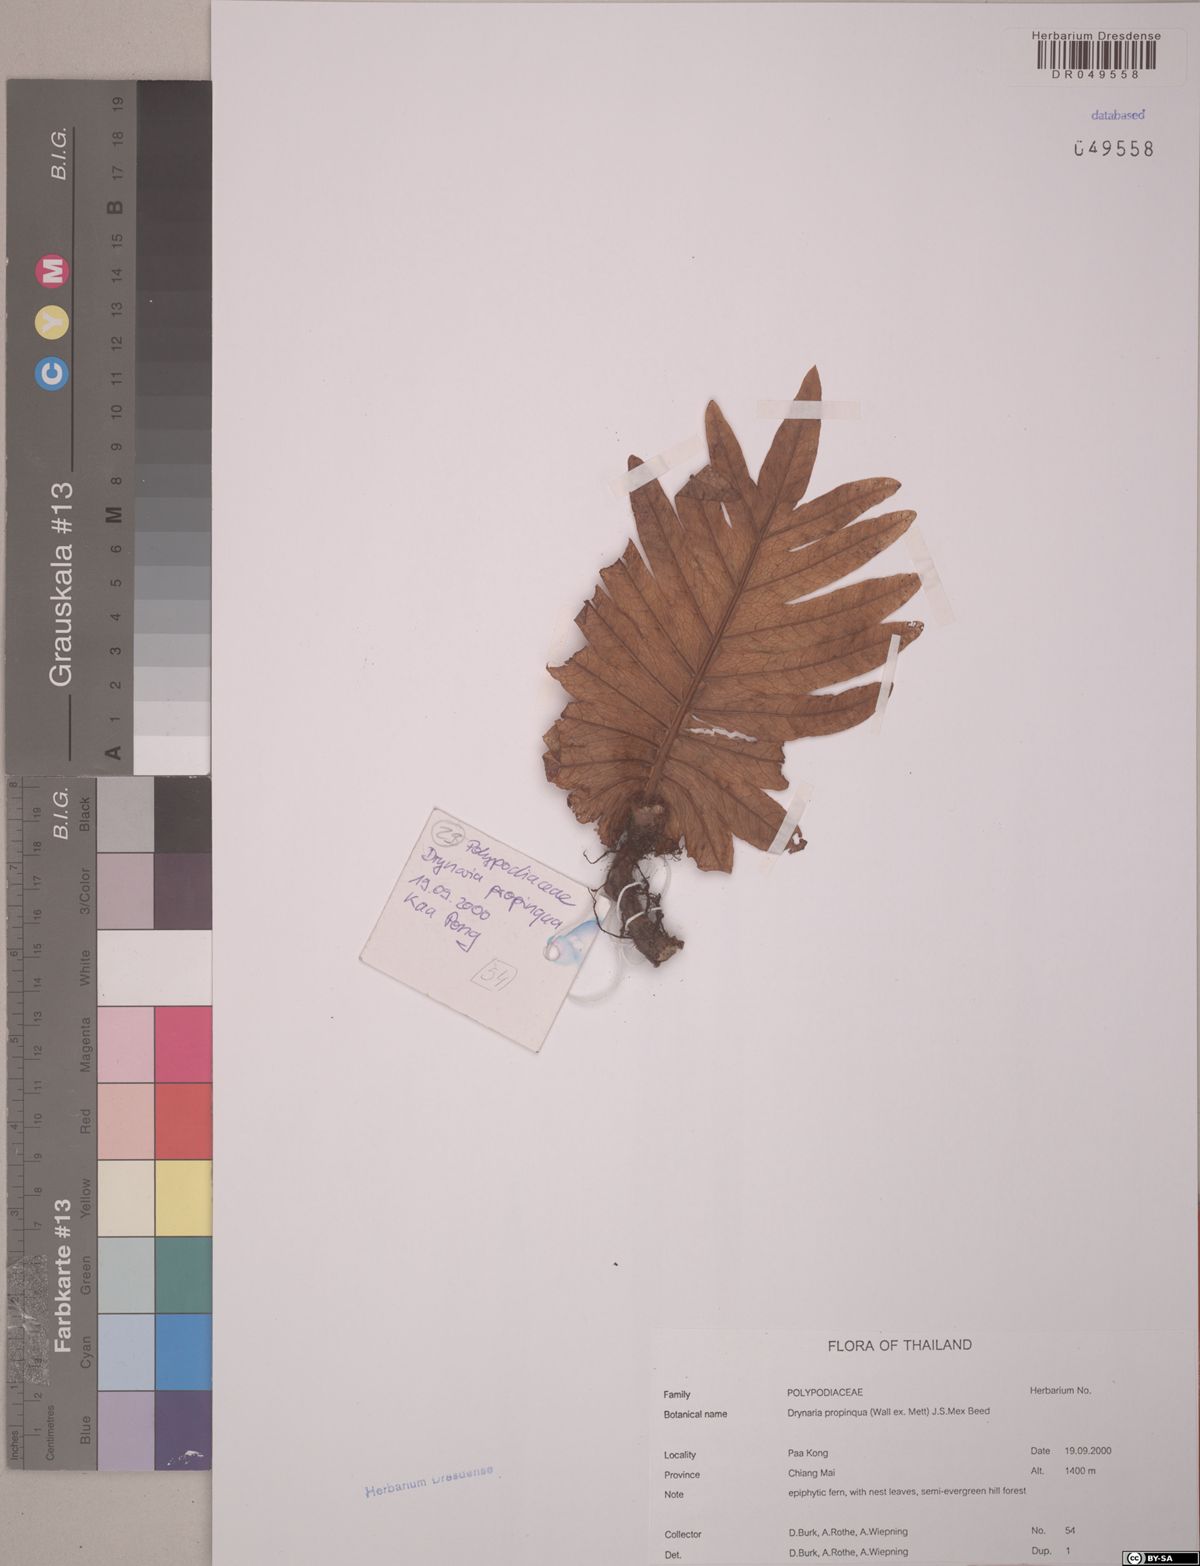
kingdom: Plantae
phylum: Tracheophyta
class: Polypodiopsida
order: Polypodiales
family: Polypodiaceae
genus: Drynaria
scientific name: Drynaria propinqua
